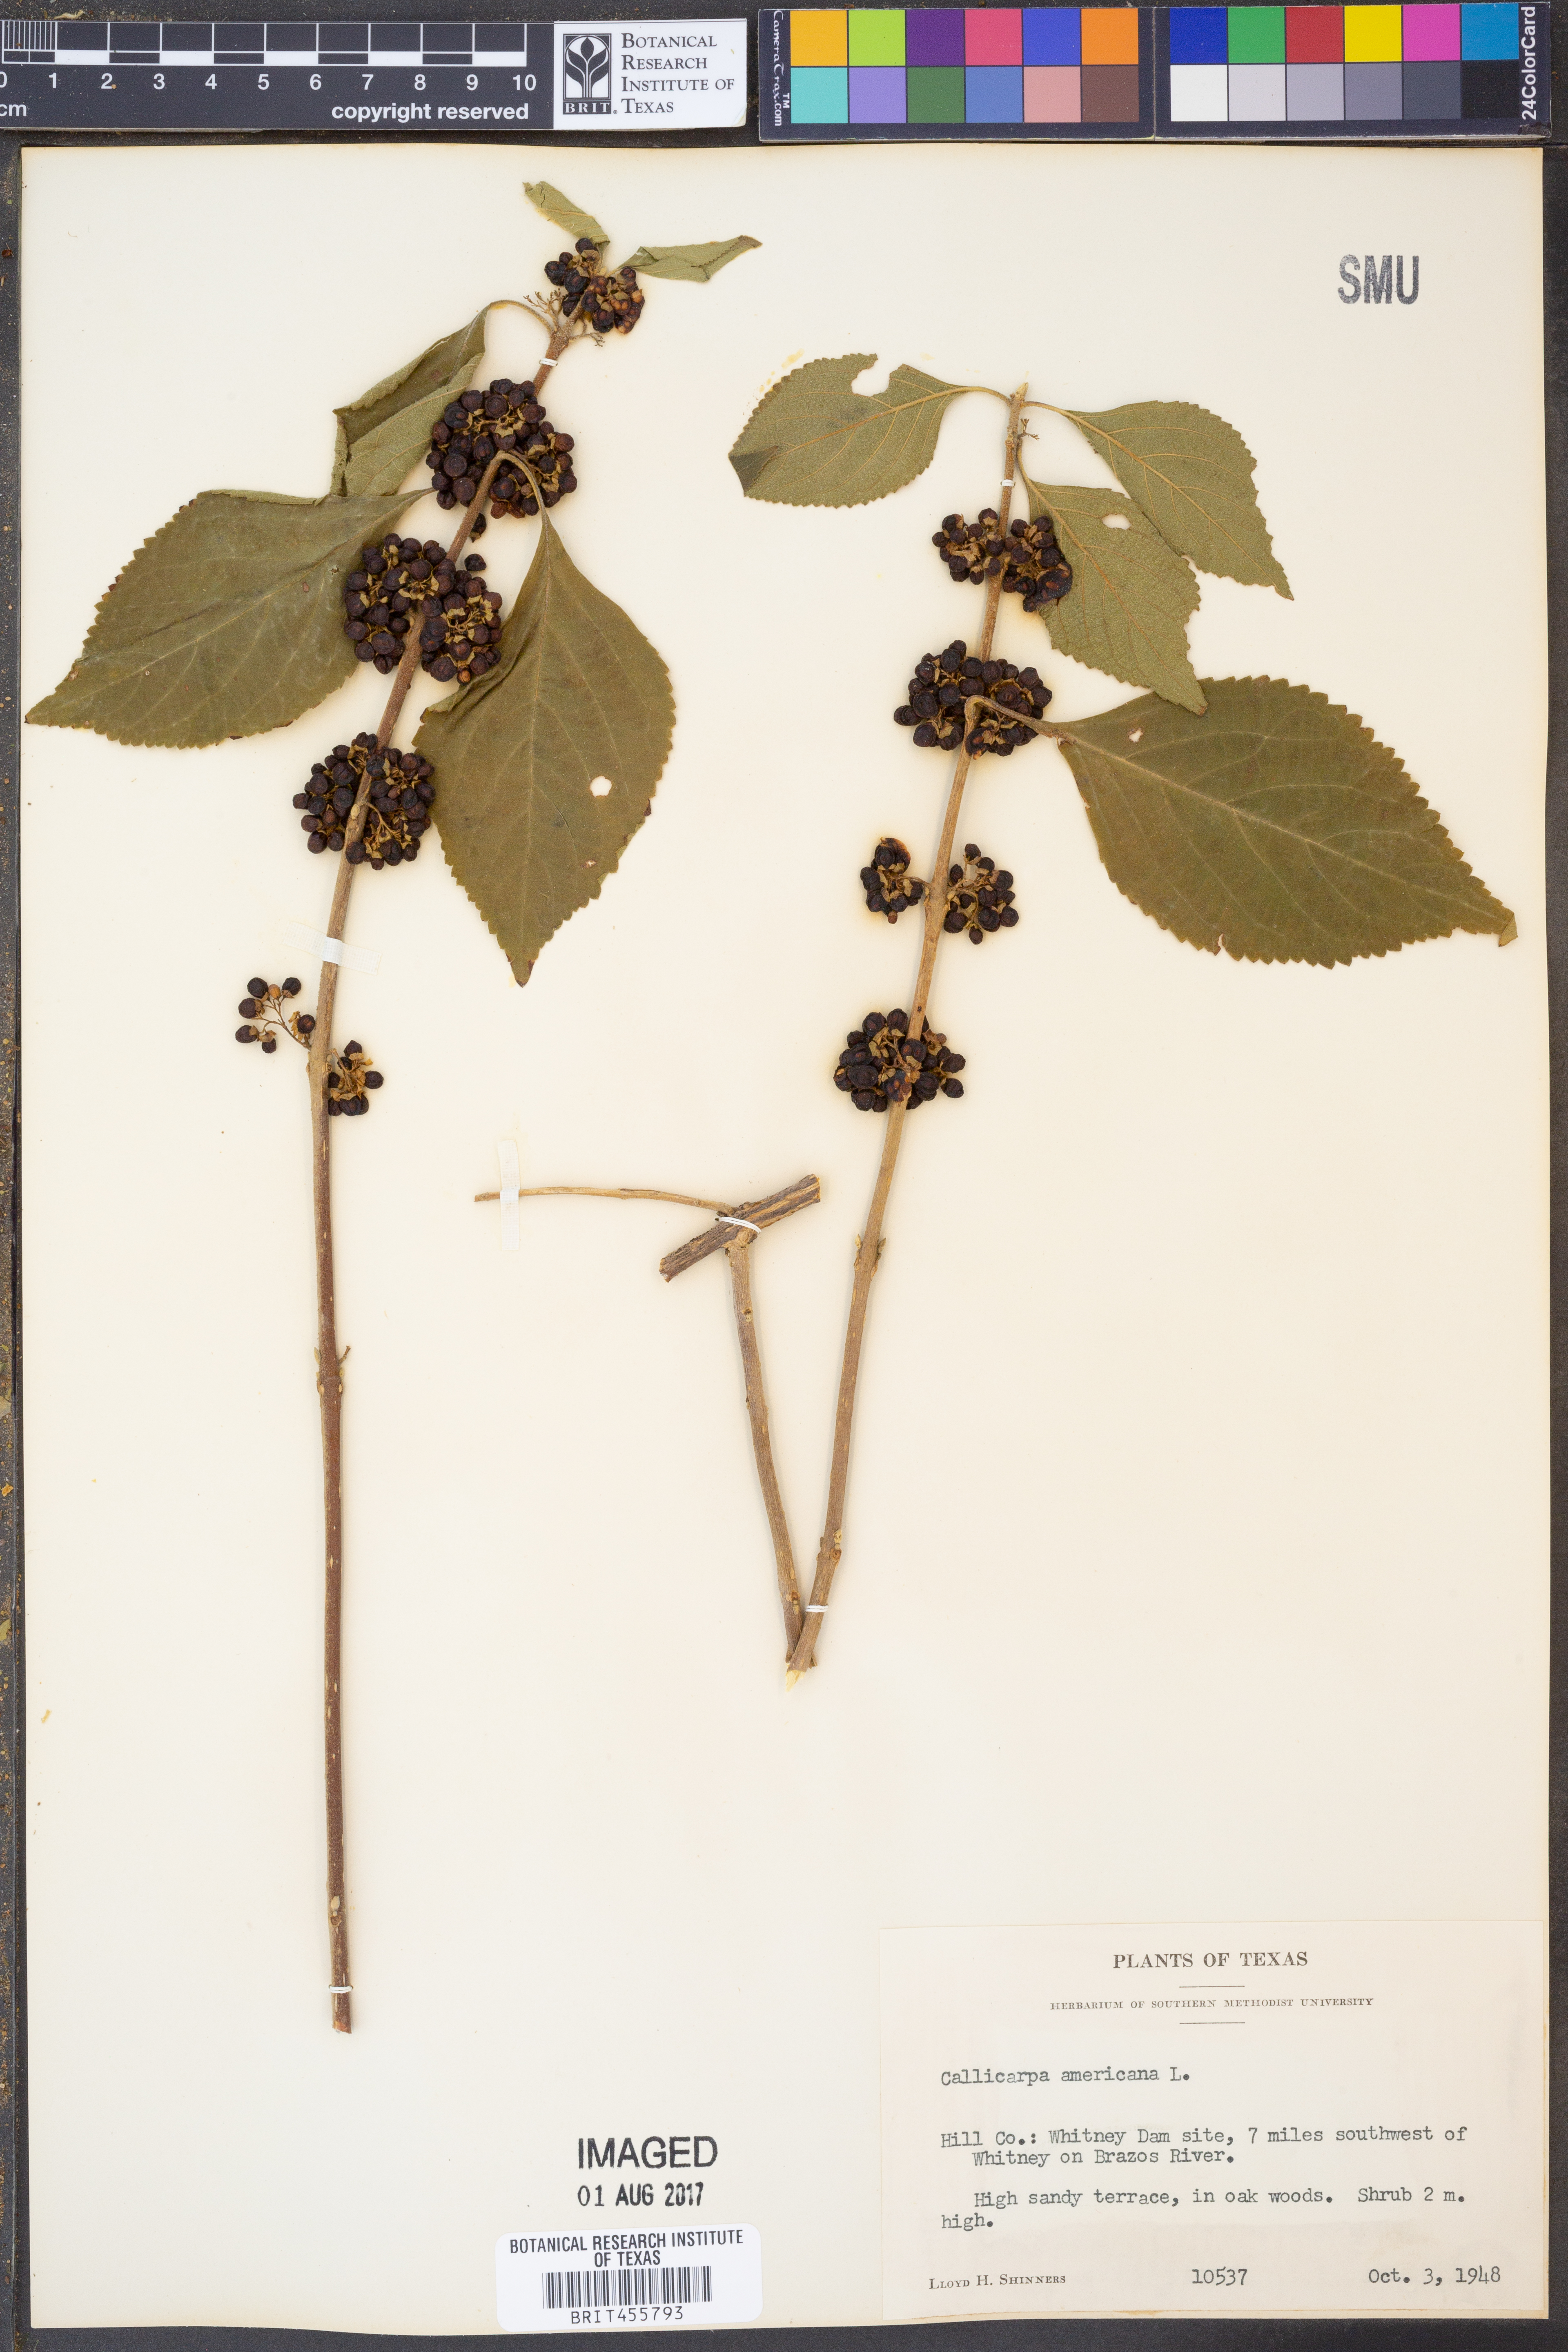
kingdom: Plantae
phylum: Tracheophyta
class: Magnoliopsida
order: Lamiales
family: Lamiaceae
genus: Callicarpa
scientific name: Callicarpa americana
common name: American beautyberry
